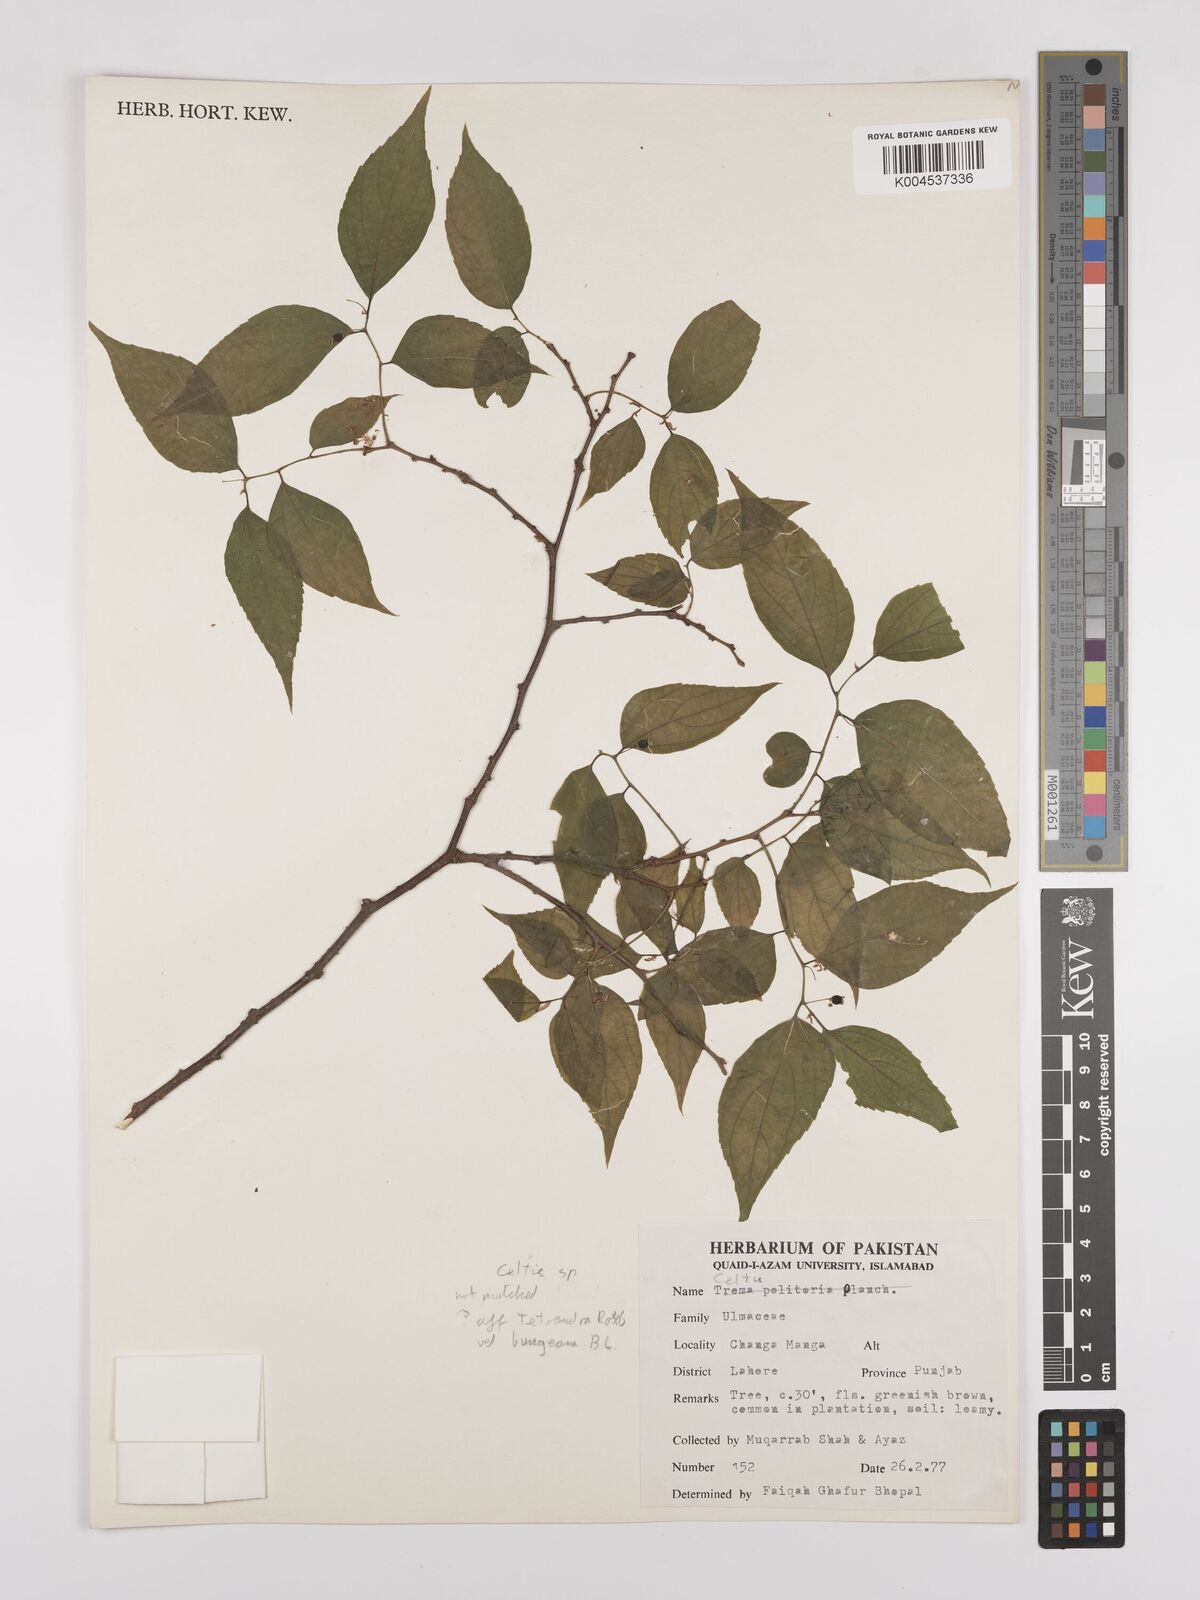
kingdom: Plantae
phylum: Tracheophyta
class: Magnoliopsida
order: Rosales
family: Cannabaceae
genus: Celtis
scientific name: Celtis
